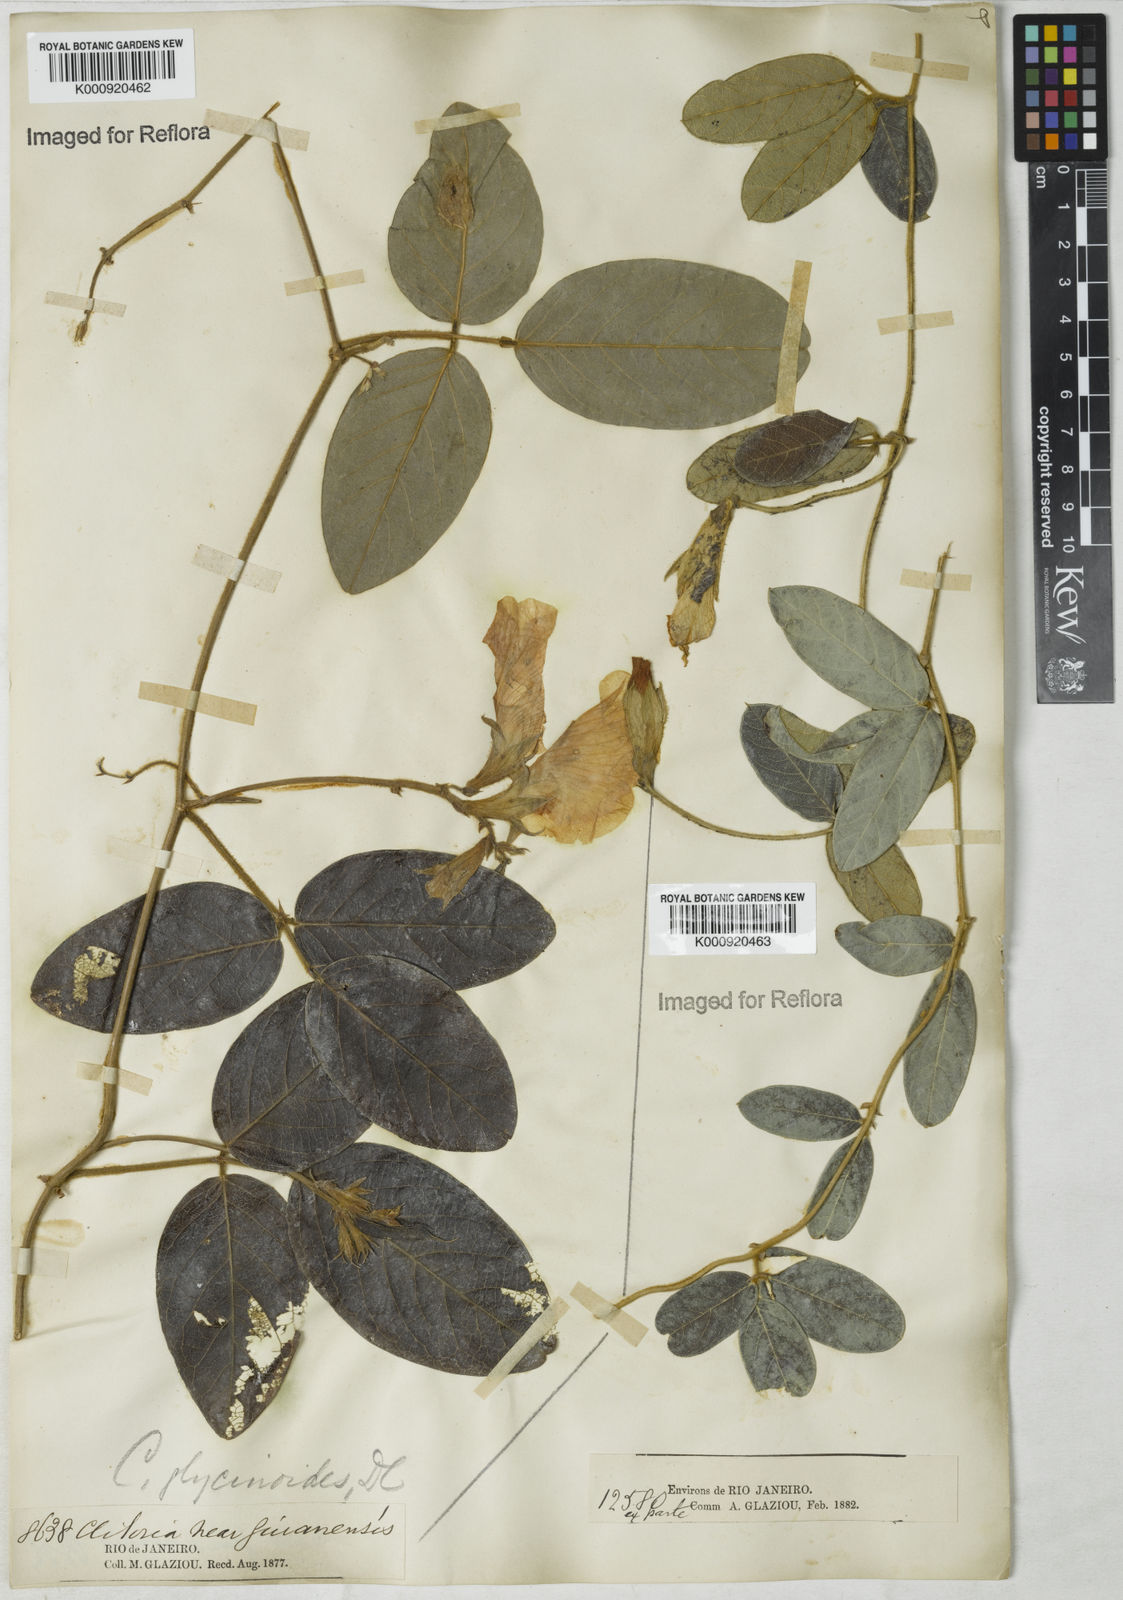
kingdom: Plantae
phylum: Tracheophyta
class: Magnoliopsida
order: Fabales
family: Fabaceae
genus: Clitoria
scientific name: Clitoria
